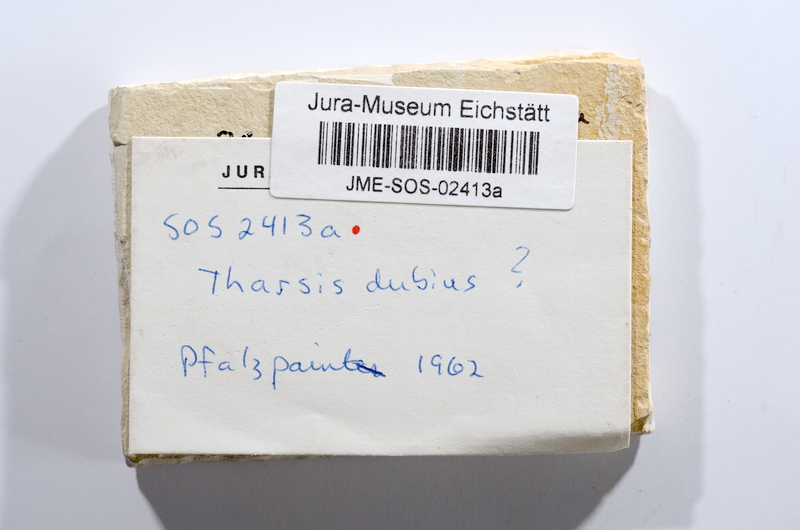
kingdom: Animalia
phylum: Chordata
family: Ascalaboidae
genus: Tharsis
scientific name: Tharsis
